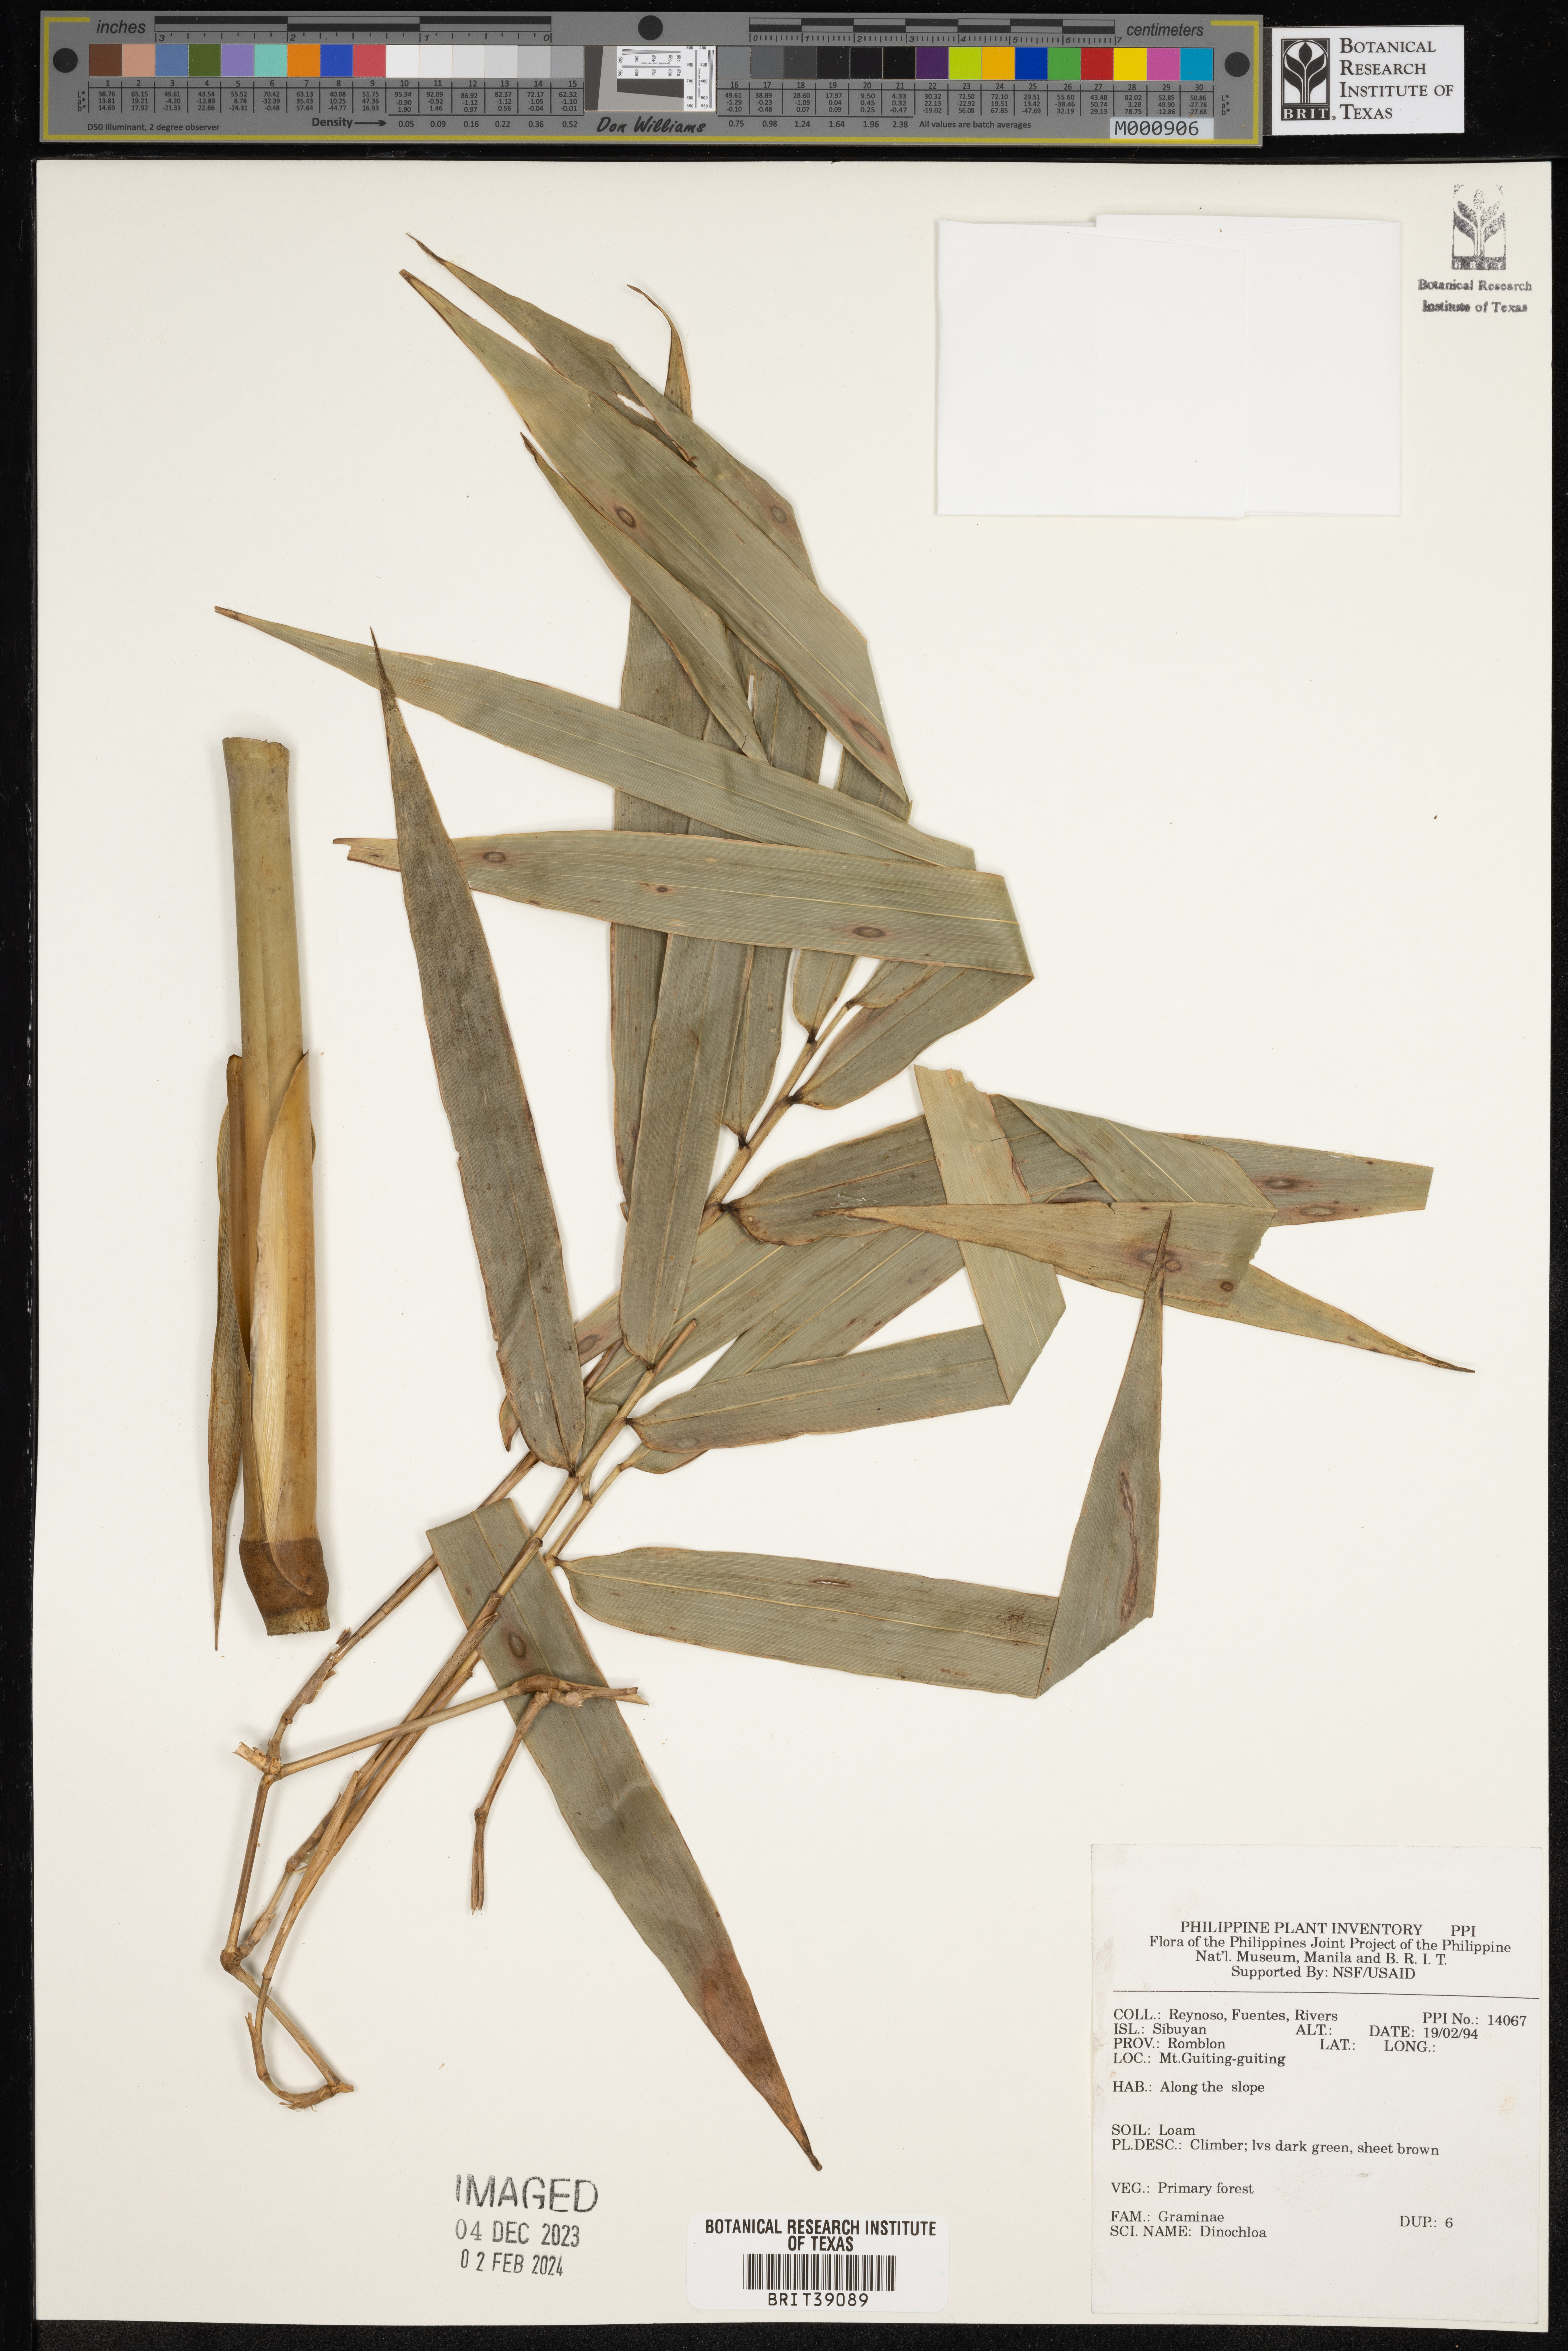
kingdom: Plantae
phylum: Tracheophyta
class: Liliopsida
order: Poales
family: Poaceae
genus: Dinochloa
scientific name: Dinochloa
